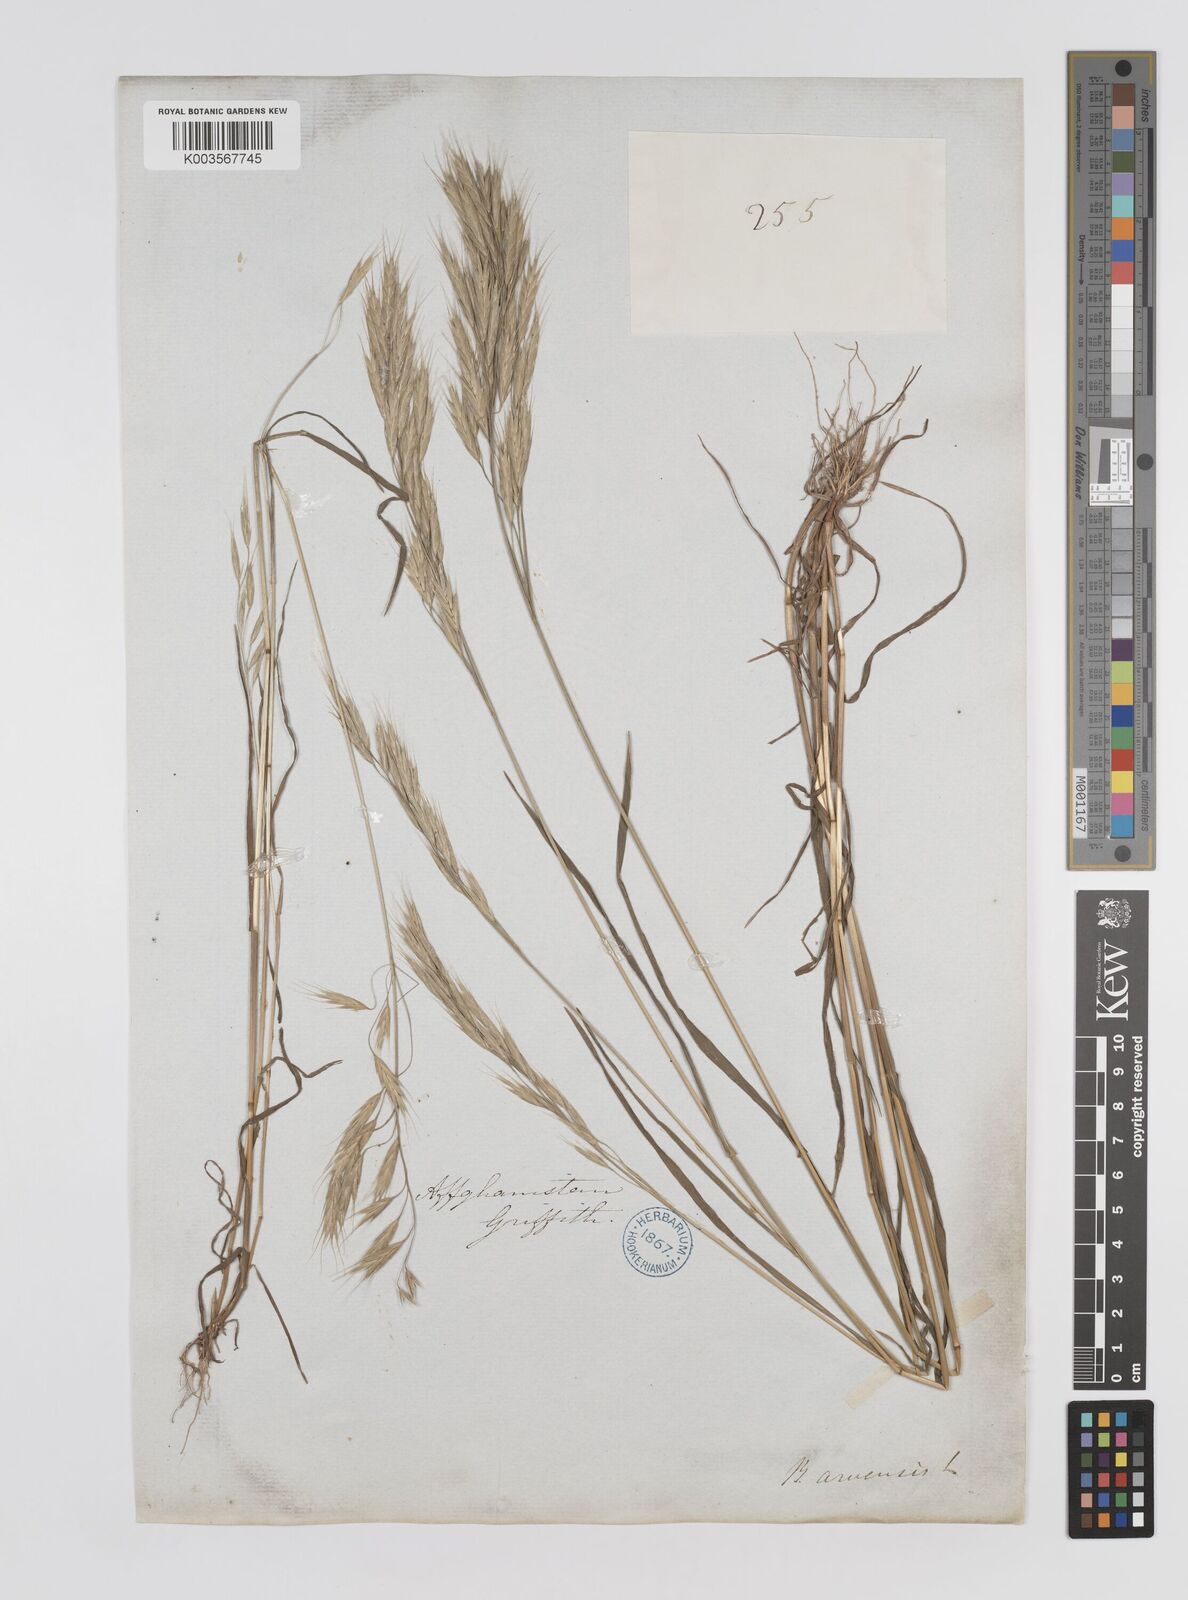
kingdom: Plantae
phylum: Tracheophyta
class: Liliopsida
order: Poales
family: Poaceae
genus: Bromus
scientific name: Bromus
